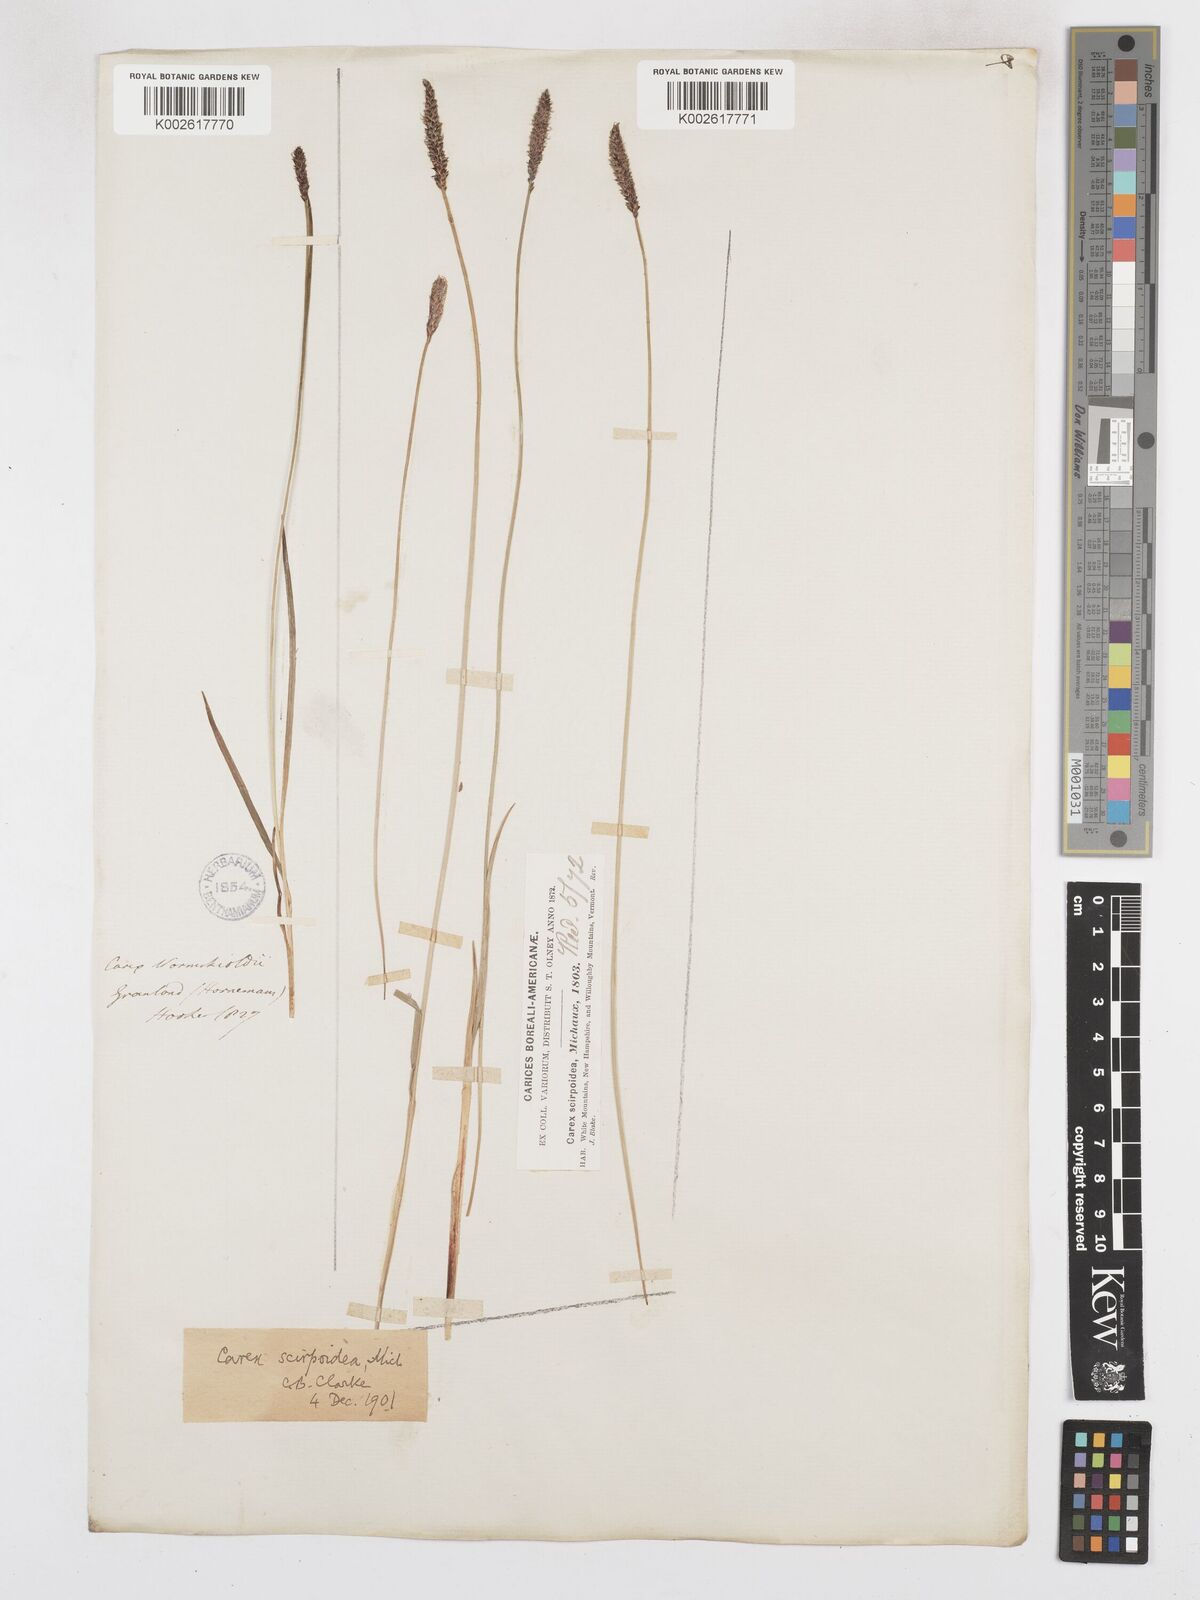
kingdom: Plantae
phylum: Tracheophyta
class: Liliopsida
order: Poales
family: Cyperaceae
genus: Carex
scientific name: Carex scirpoidea
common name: Canada single-spike sedge
